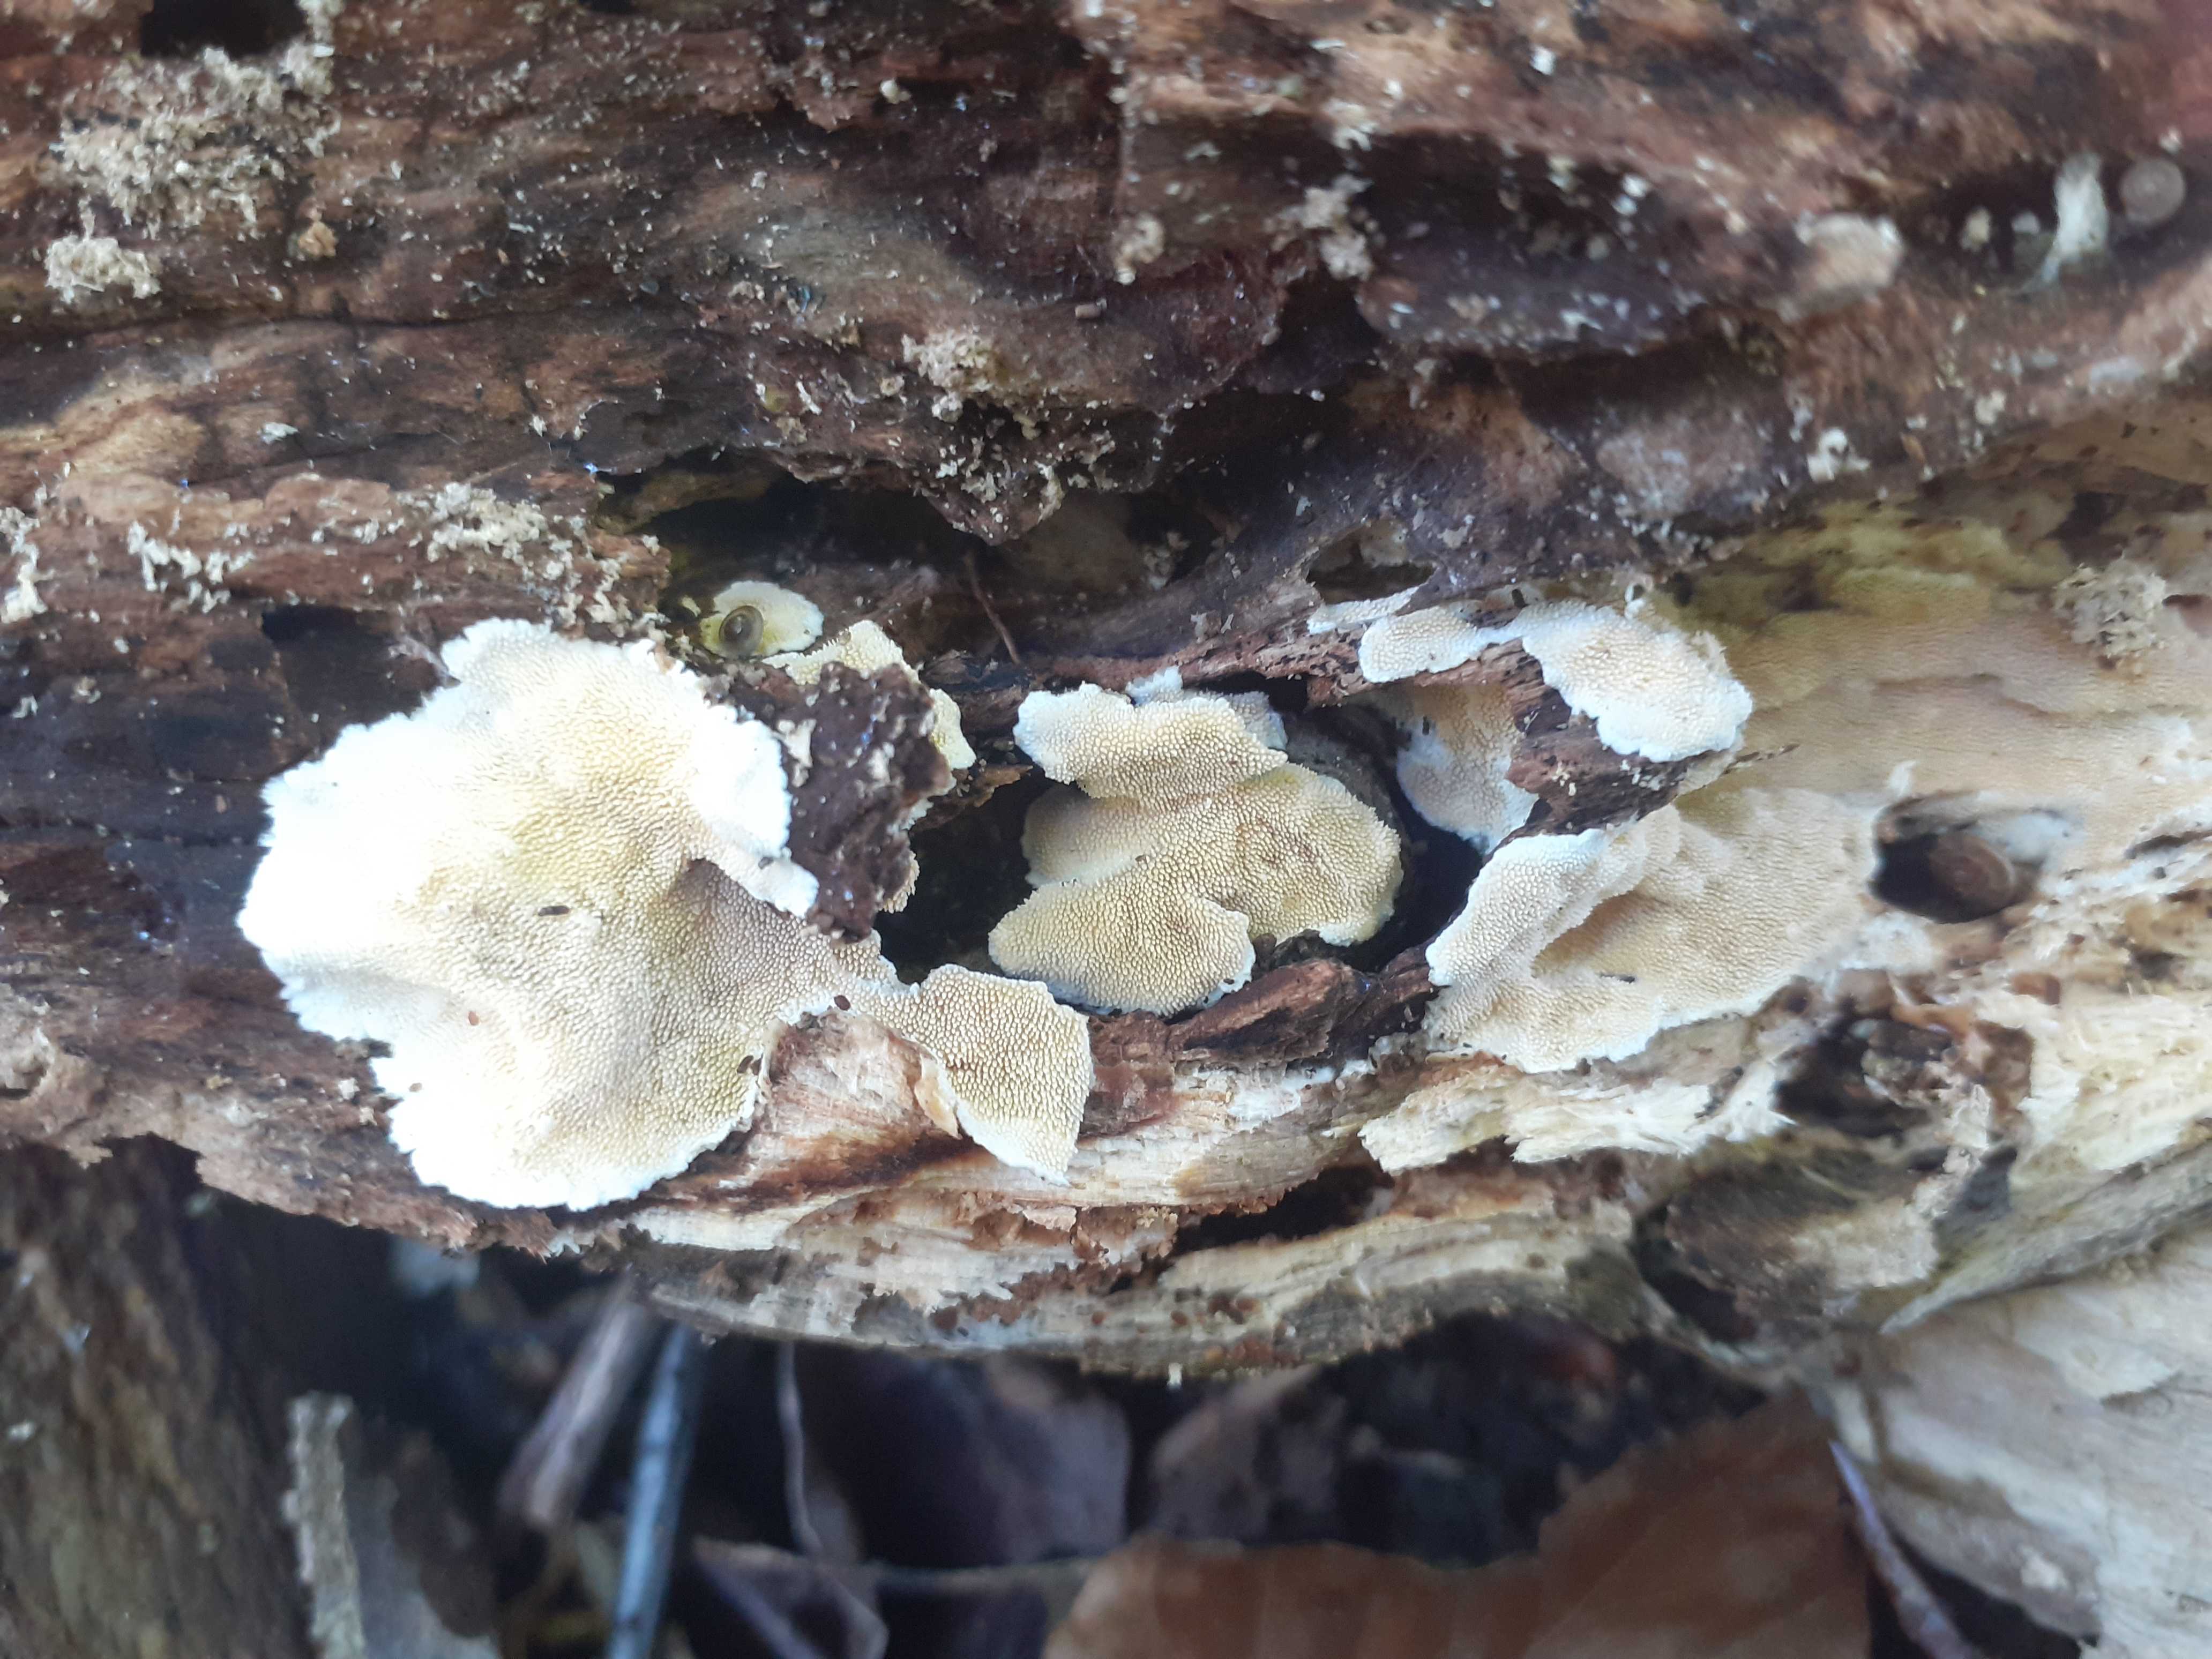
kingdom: Fungi
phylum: Basidiomycota
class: Agaricomycetes
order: Polyporales
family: Steccherinaceae
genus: Steccherinum
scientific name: Steccherinum ochraceum
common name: almindelig skønpig
